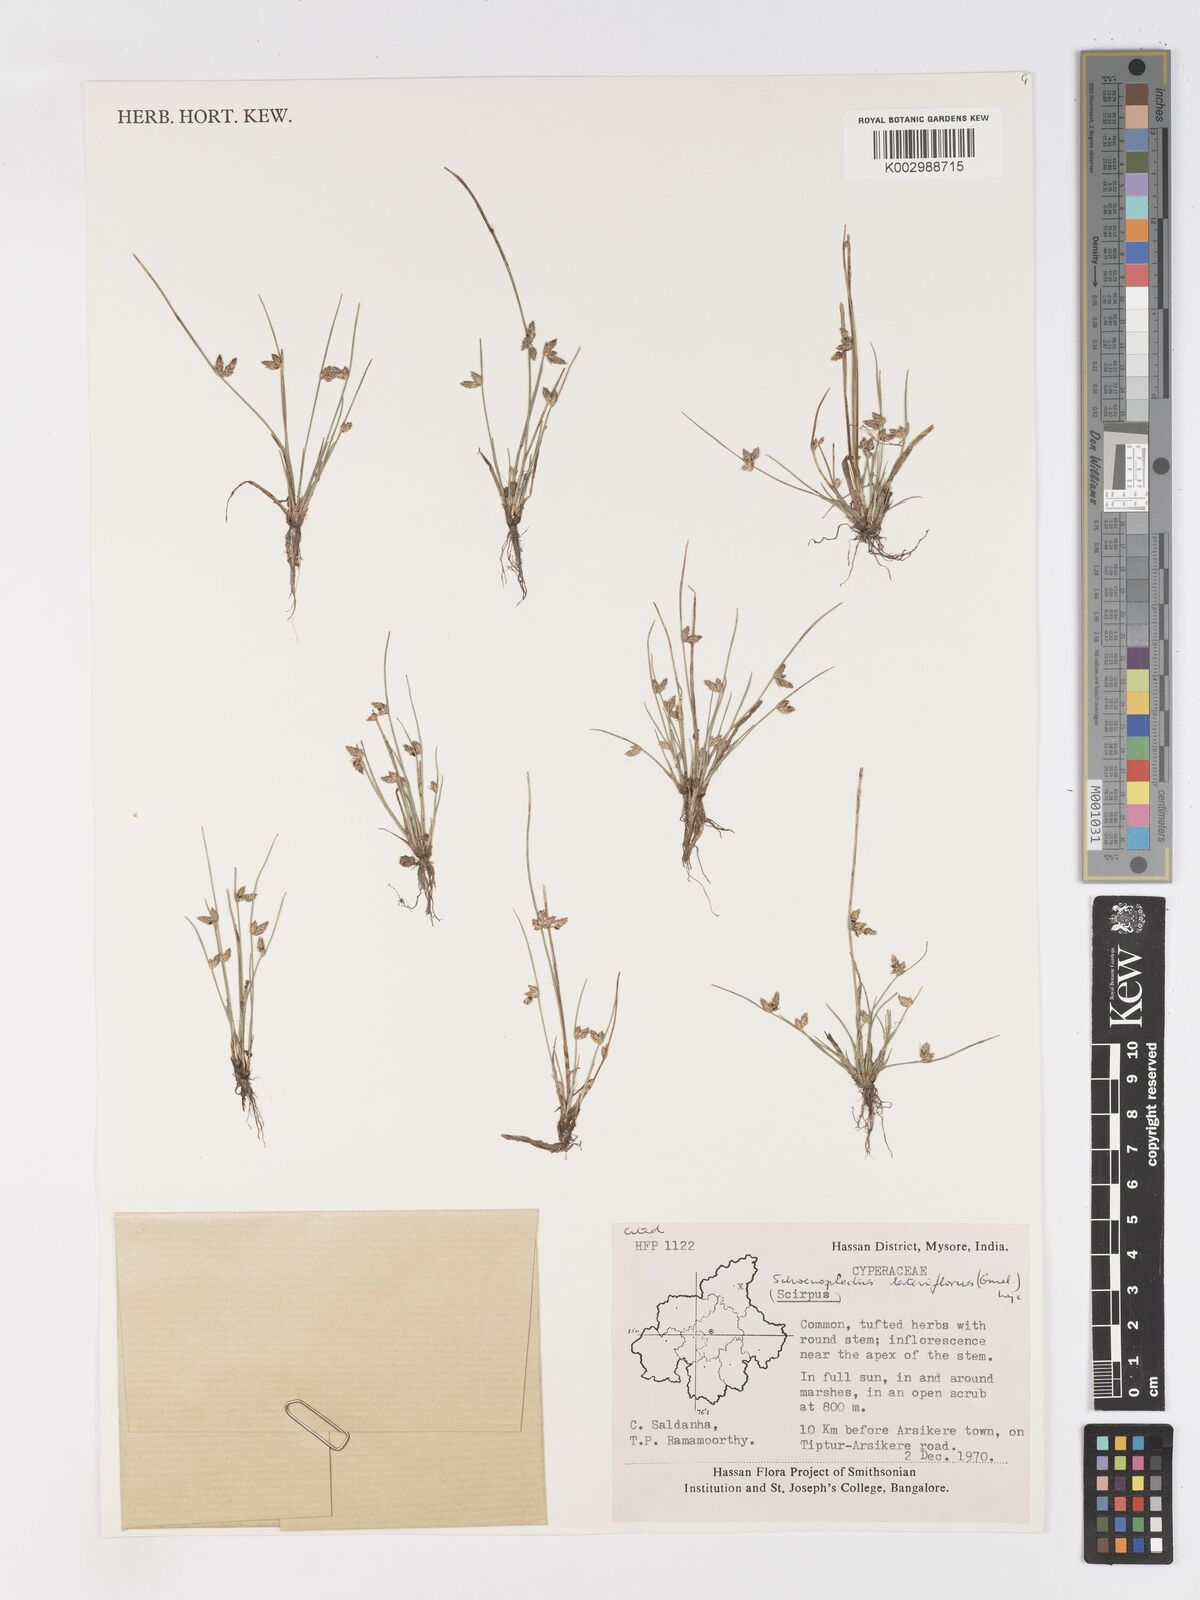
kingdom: Plantae
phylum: Tracheophyta
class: Liliopsida
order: Poales
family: Cyperaceae
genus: Schoenoplectiella
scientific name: Schoenoplectiella lateriflora
